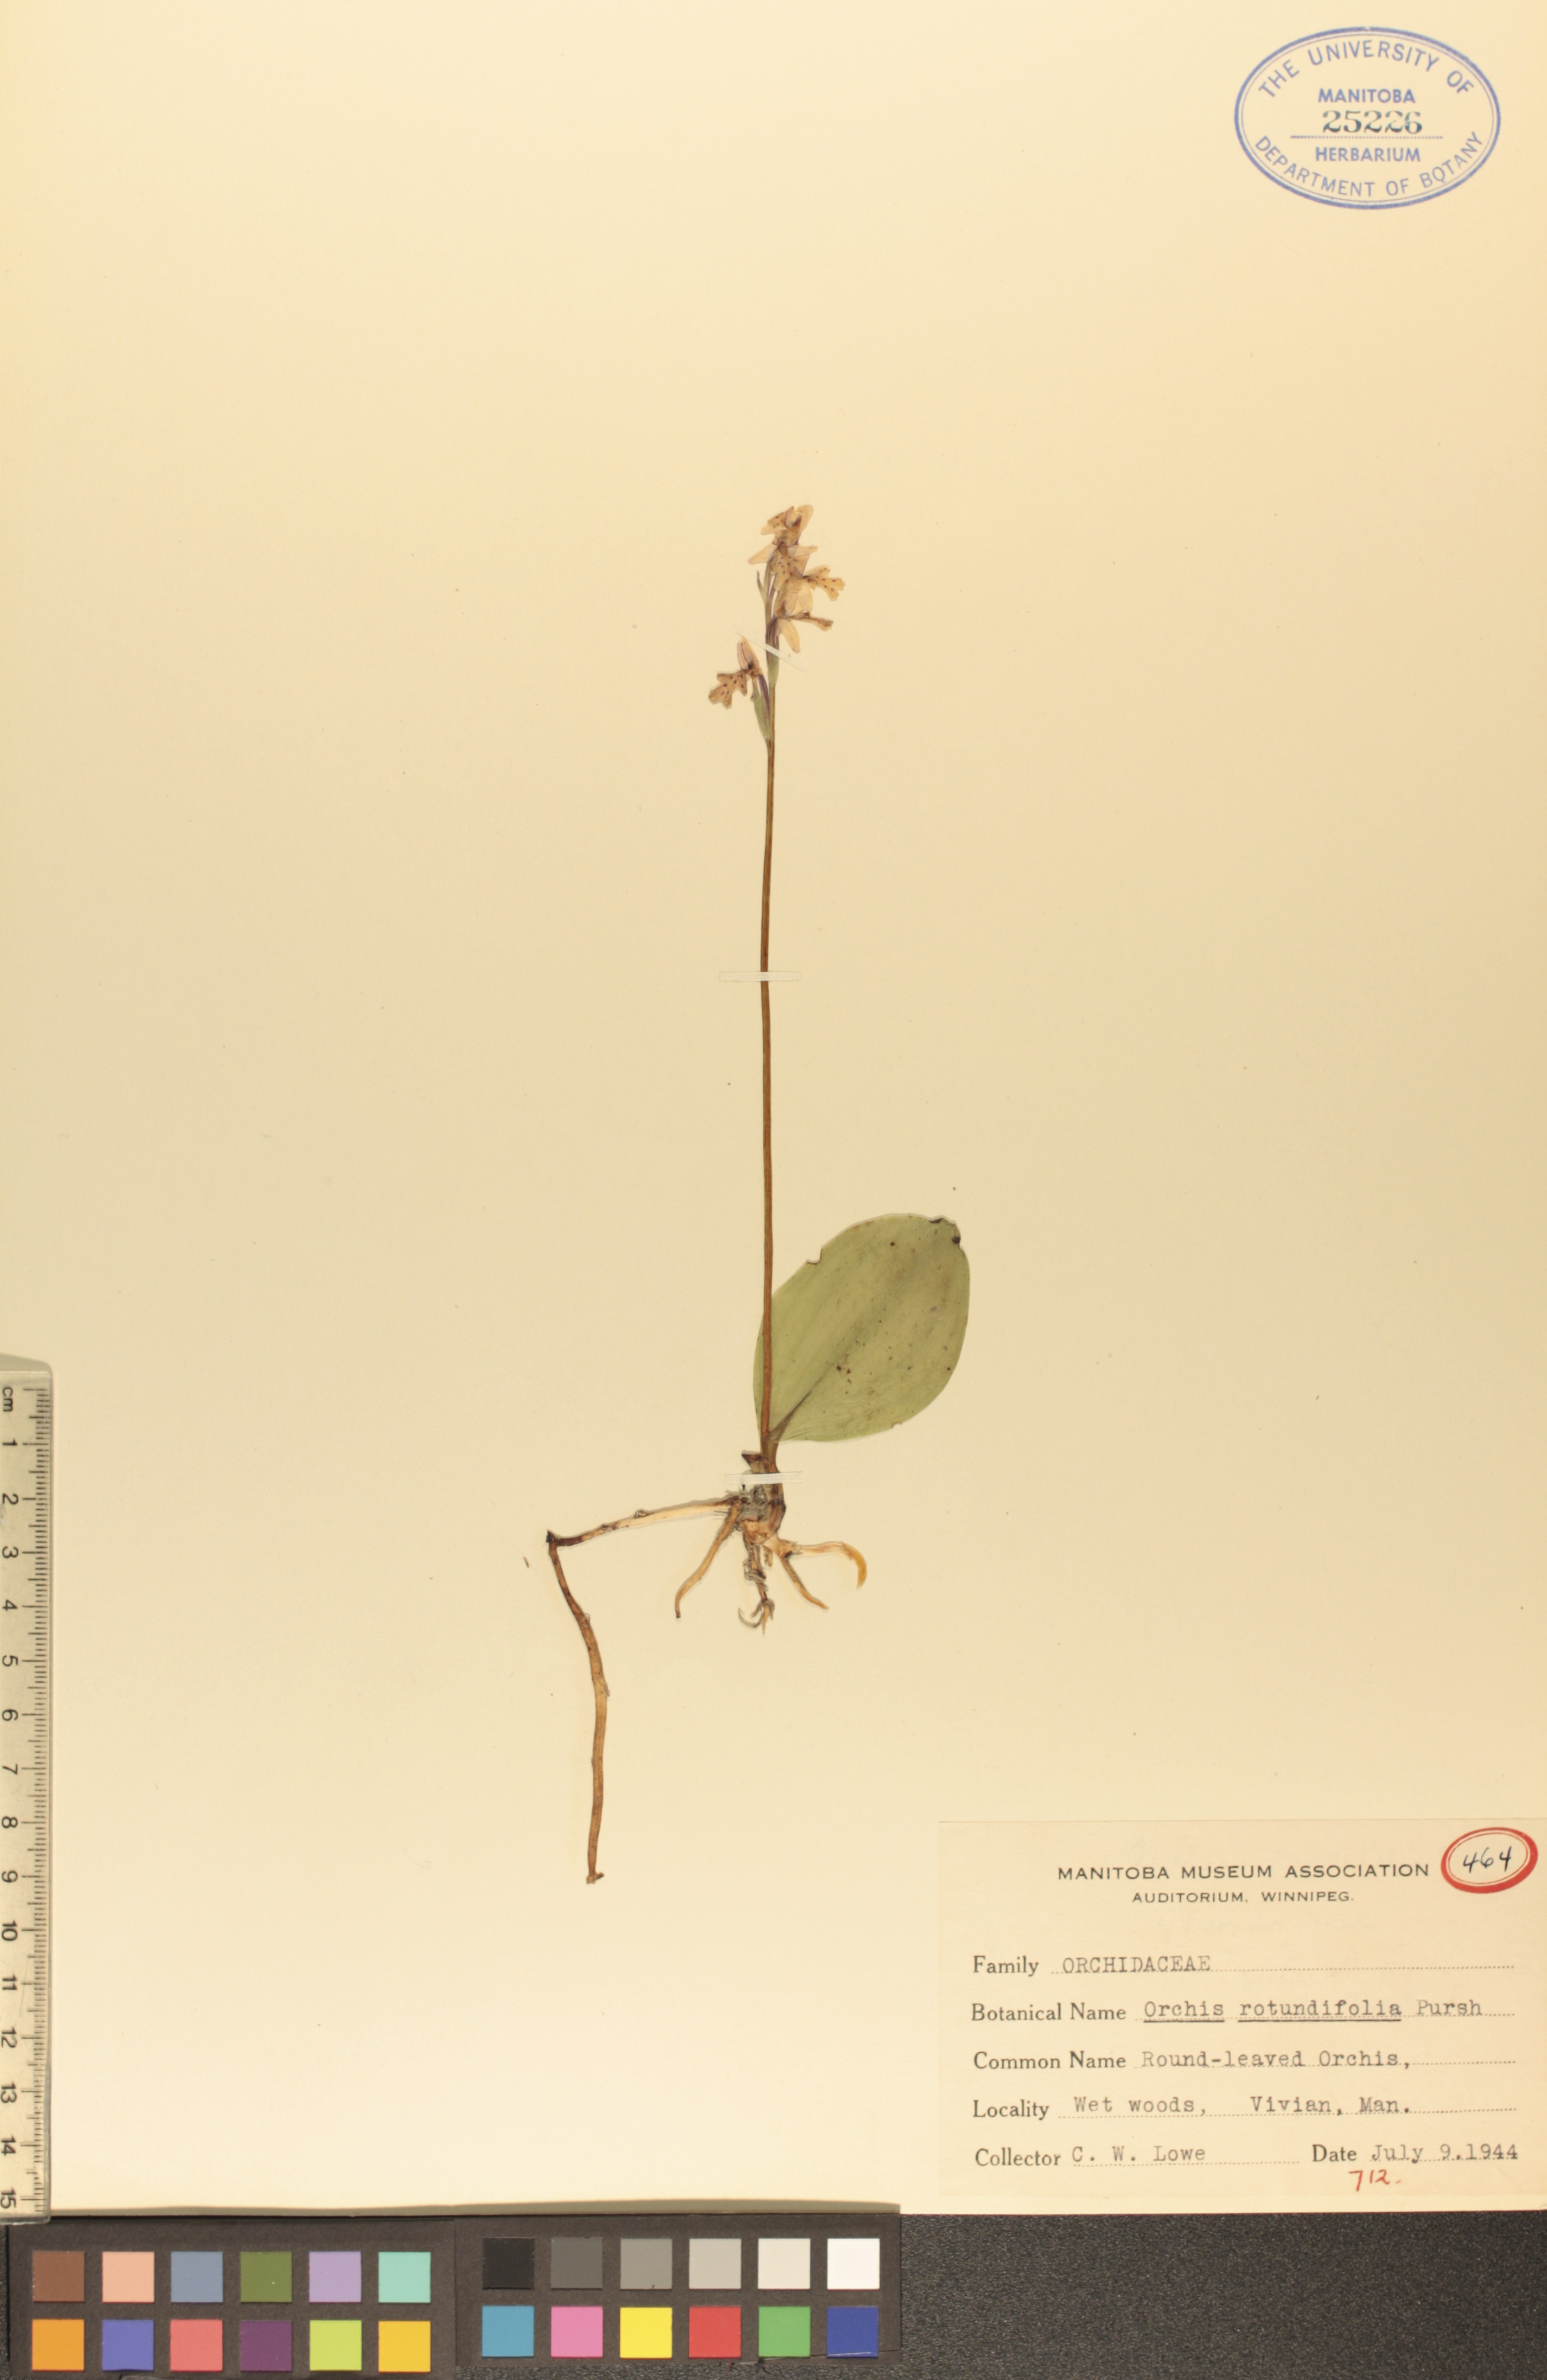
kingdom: Plantae
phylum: Tracheophyta
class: Liliopsida
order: Asparagales
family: Orchidaceae
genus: Galearis
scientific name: Galearis rotundifolia
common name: One-leaved orchis
